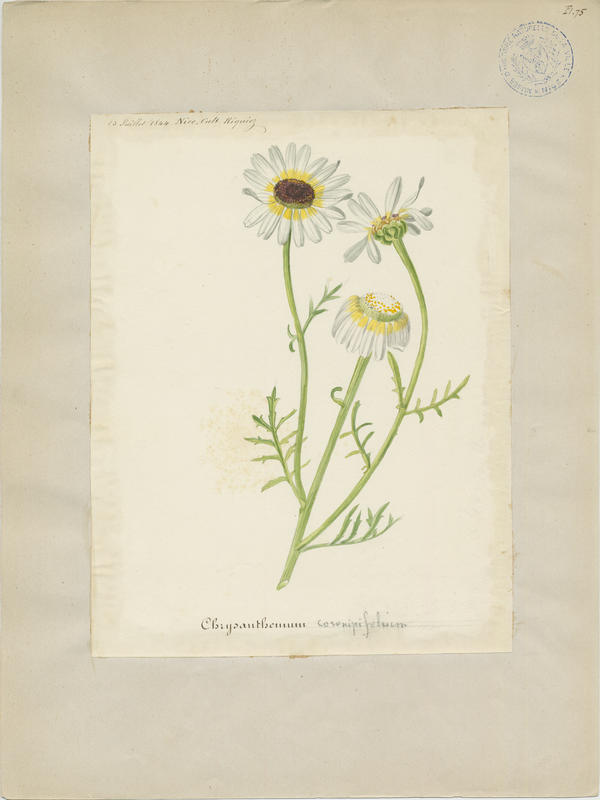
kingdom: Plantae
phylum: Tracheophyta
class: Magnoliopsida
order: Asterales
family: Asteraceae
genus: Leucanthemum
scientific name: Leucanthemum coronopifolium
